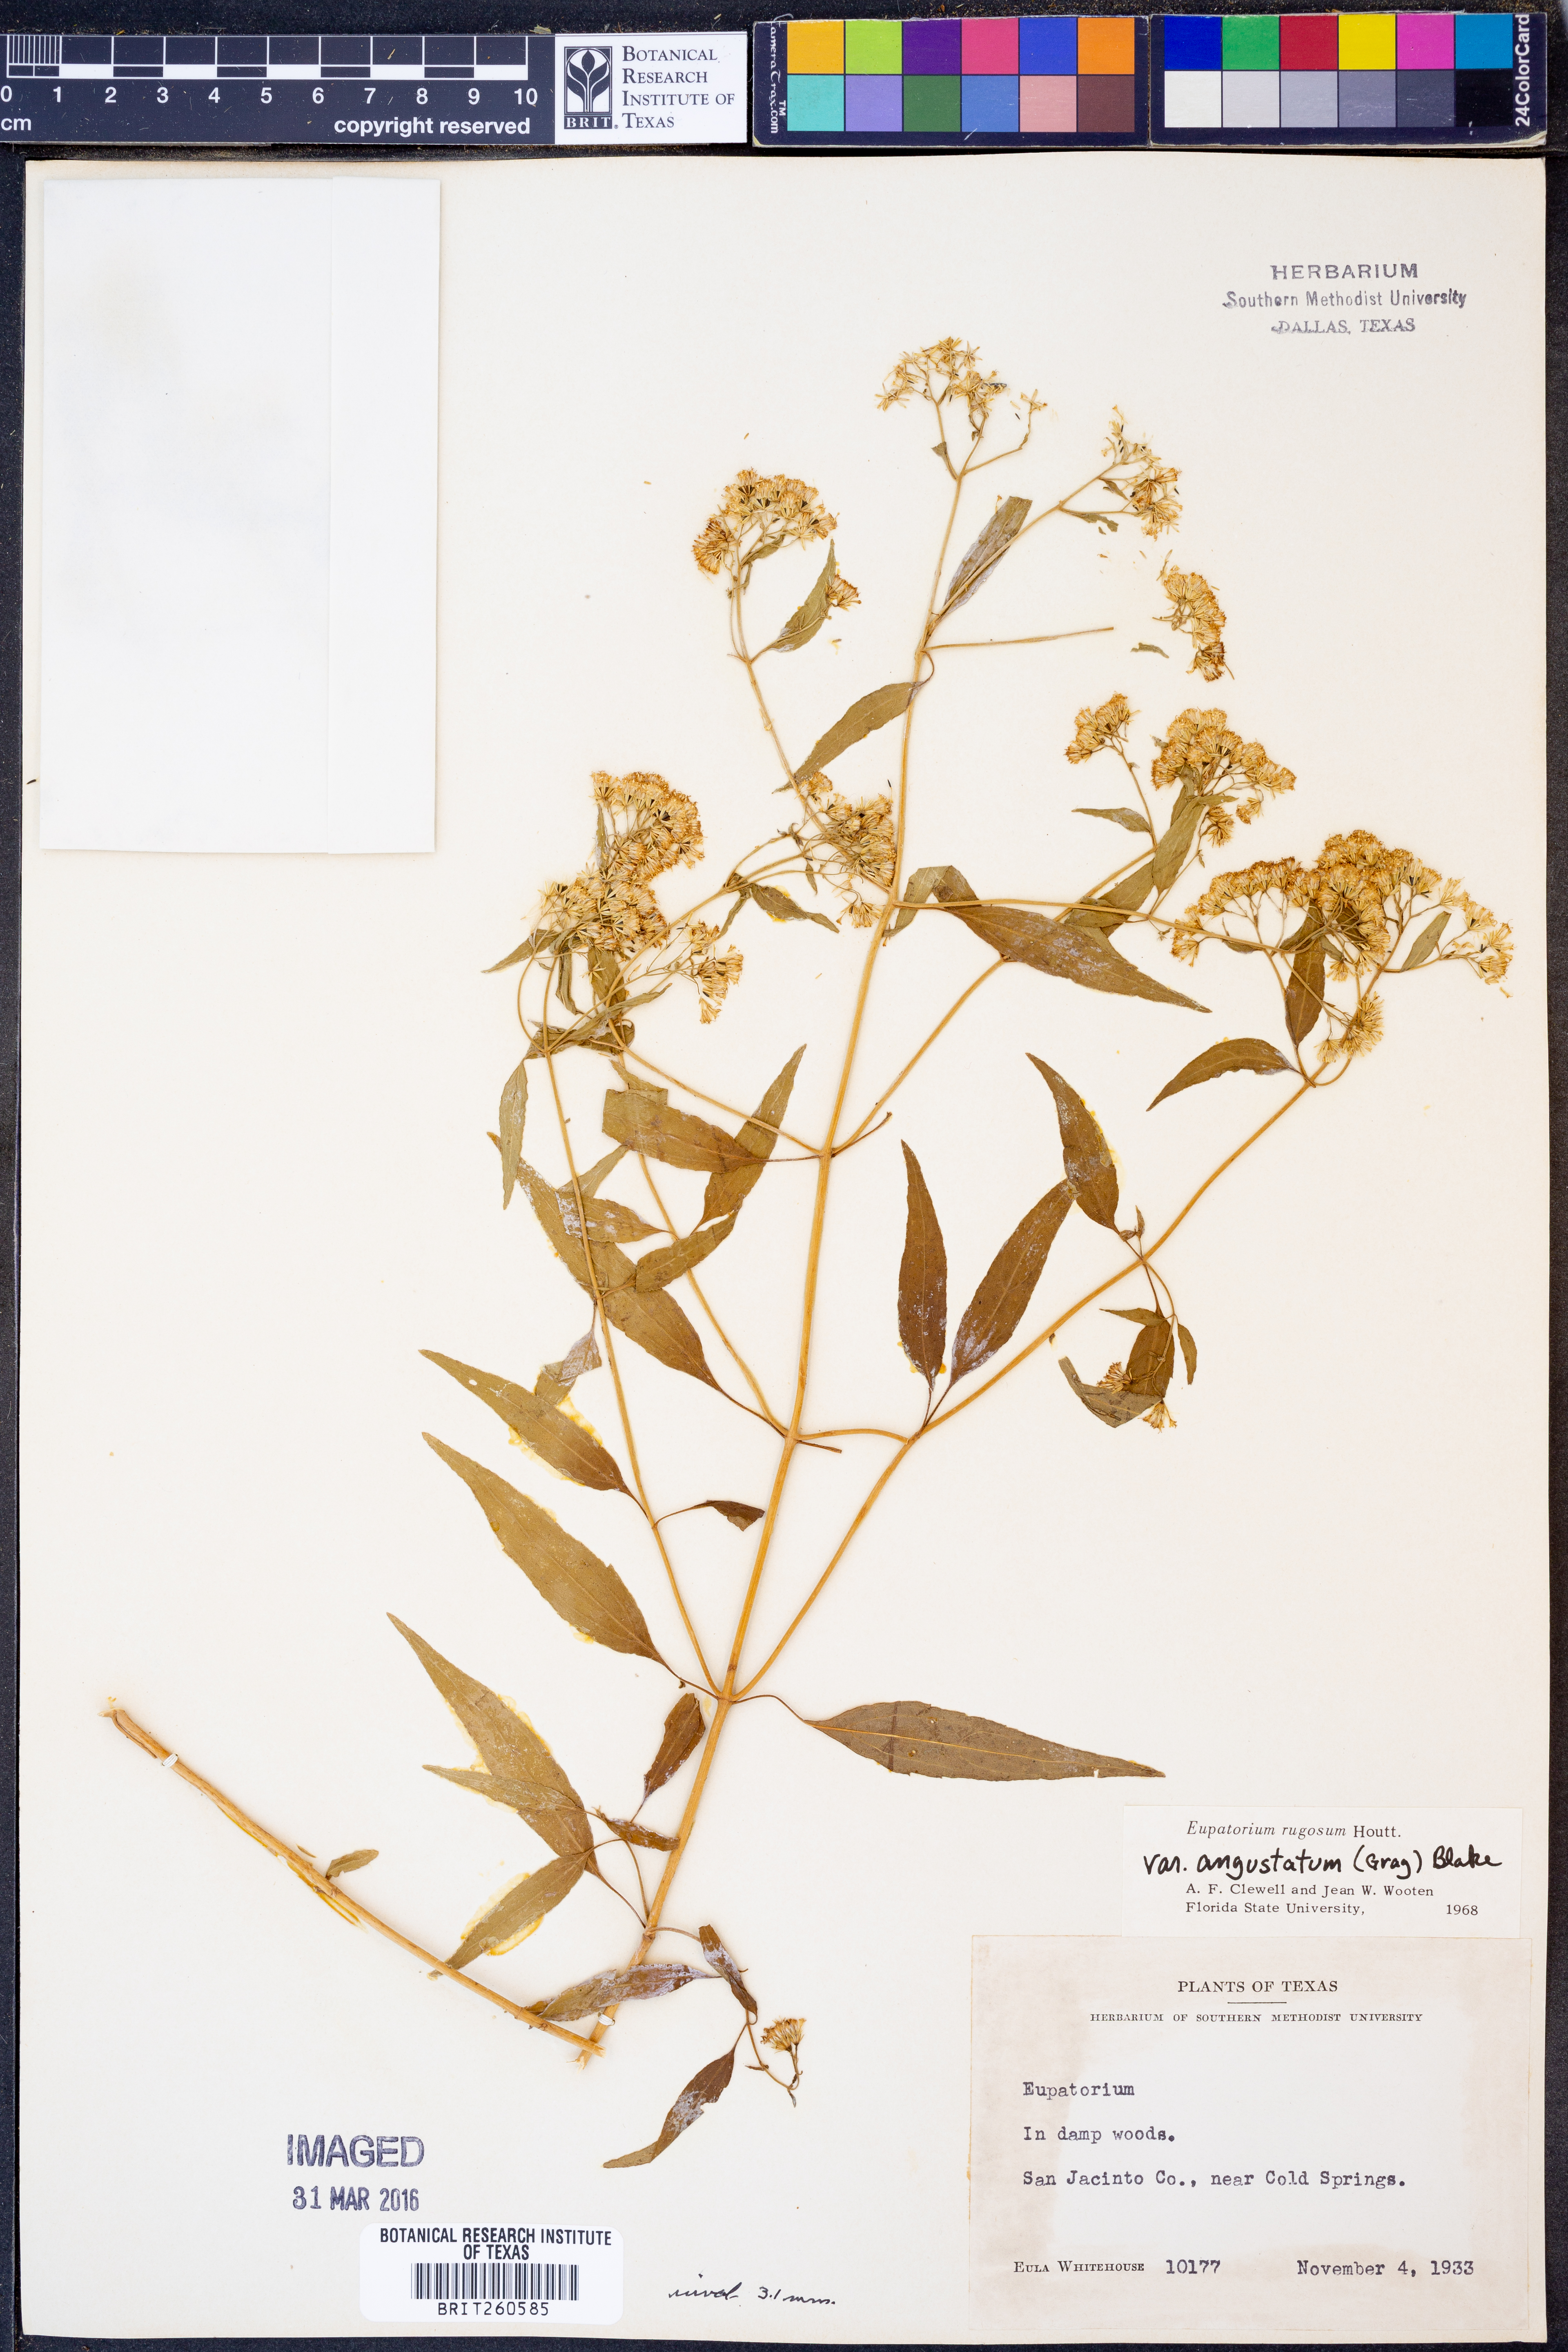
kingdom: Plantae
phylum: Tracheophyta
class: Magnoliopsida
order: Asterales
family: Asteraceae
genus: Ageratina
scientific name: Ageratina altissima
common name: White snakeroot
